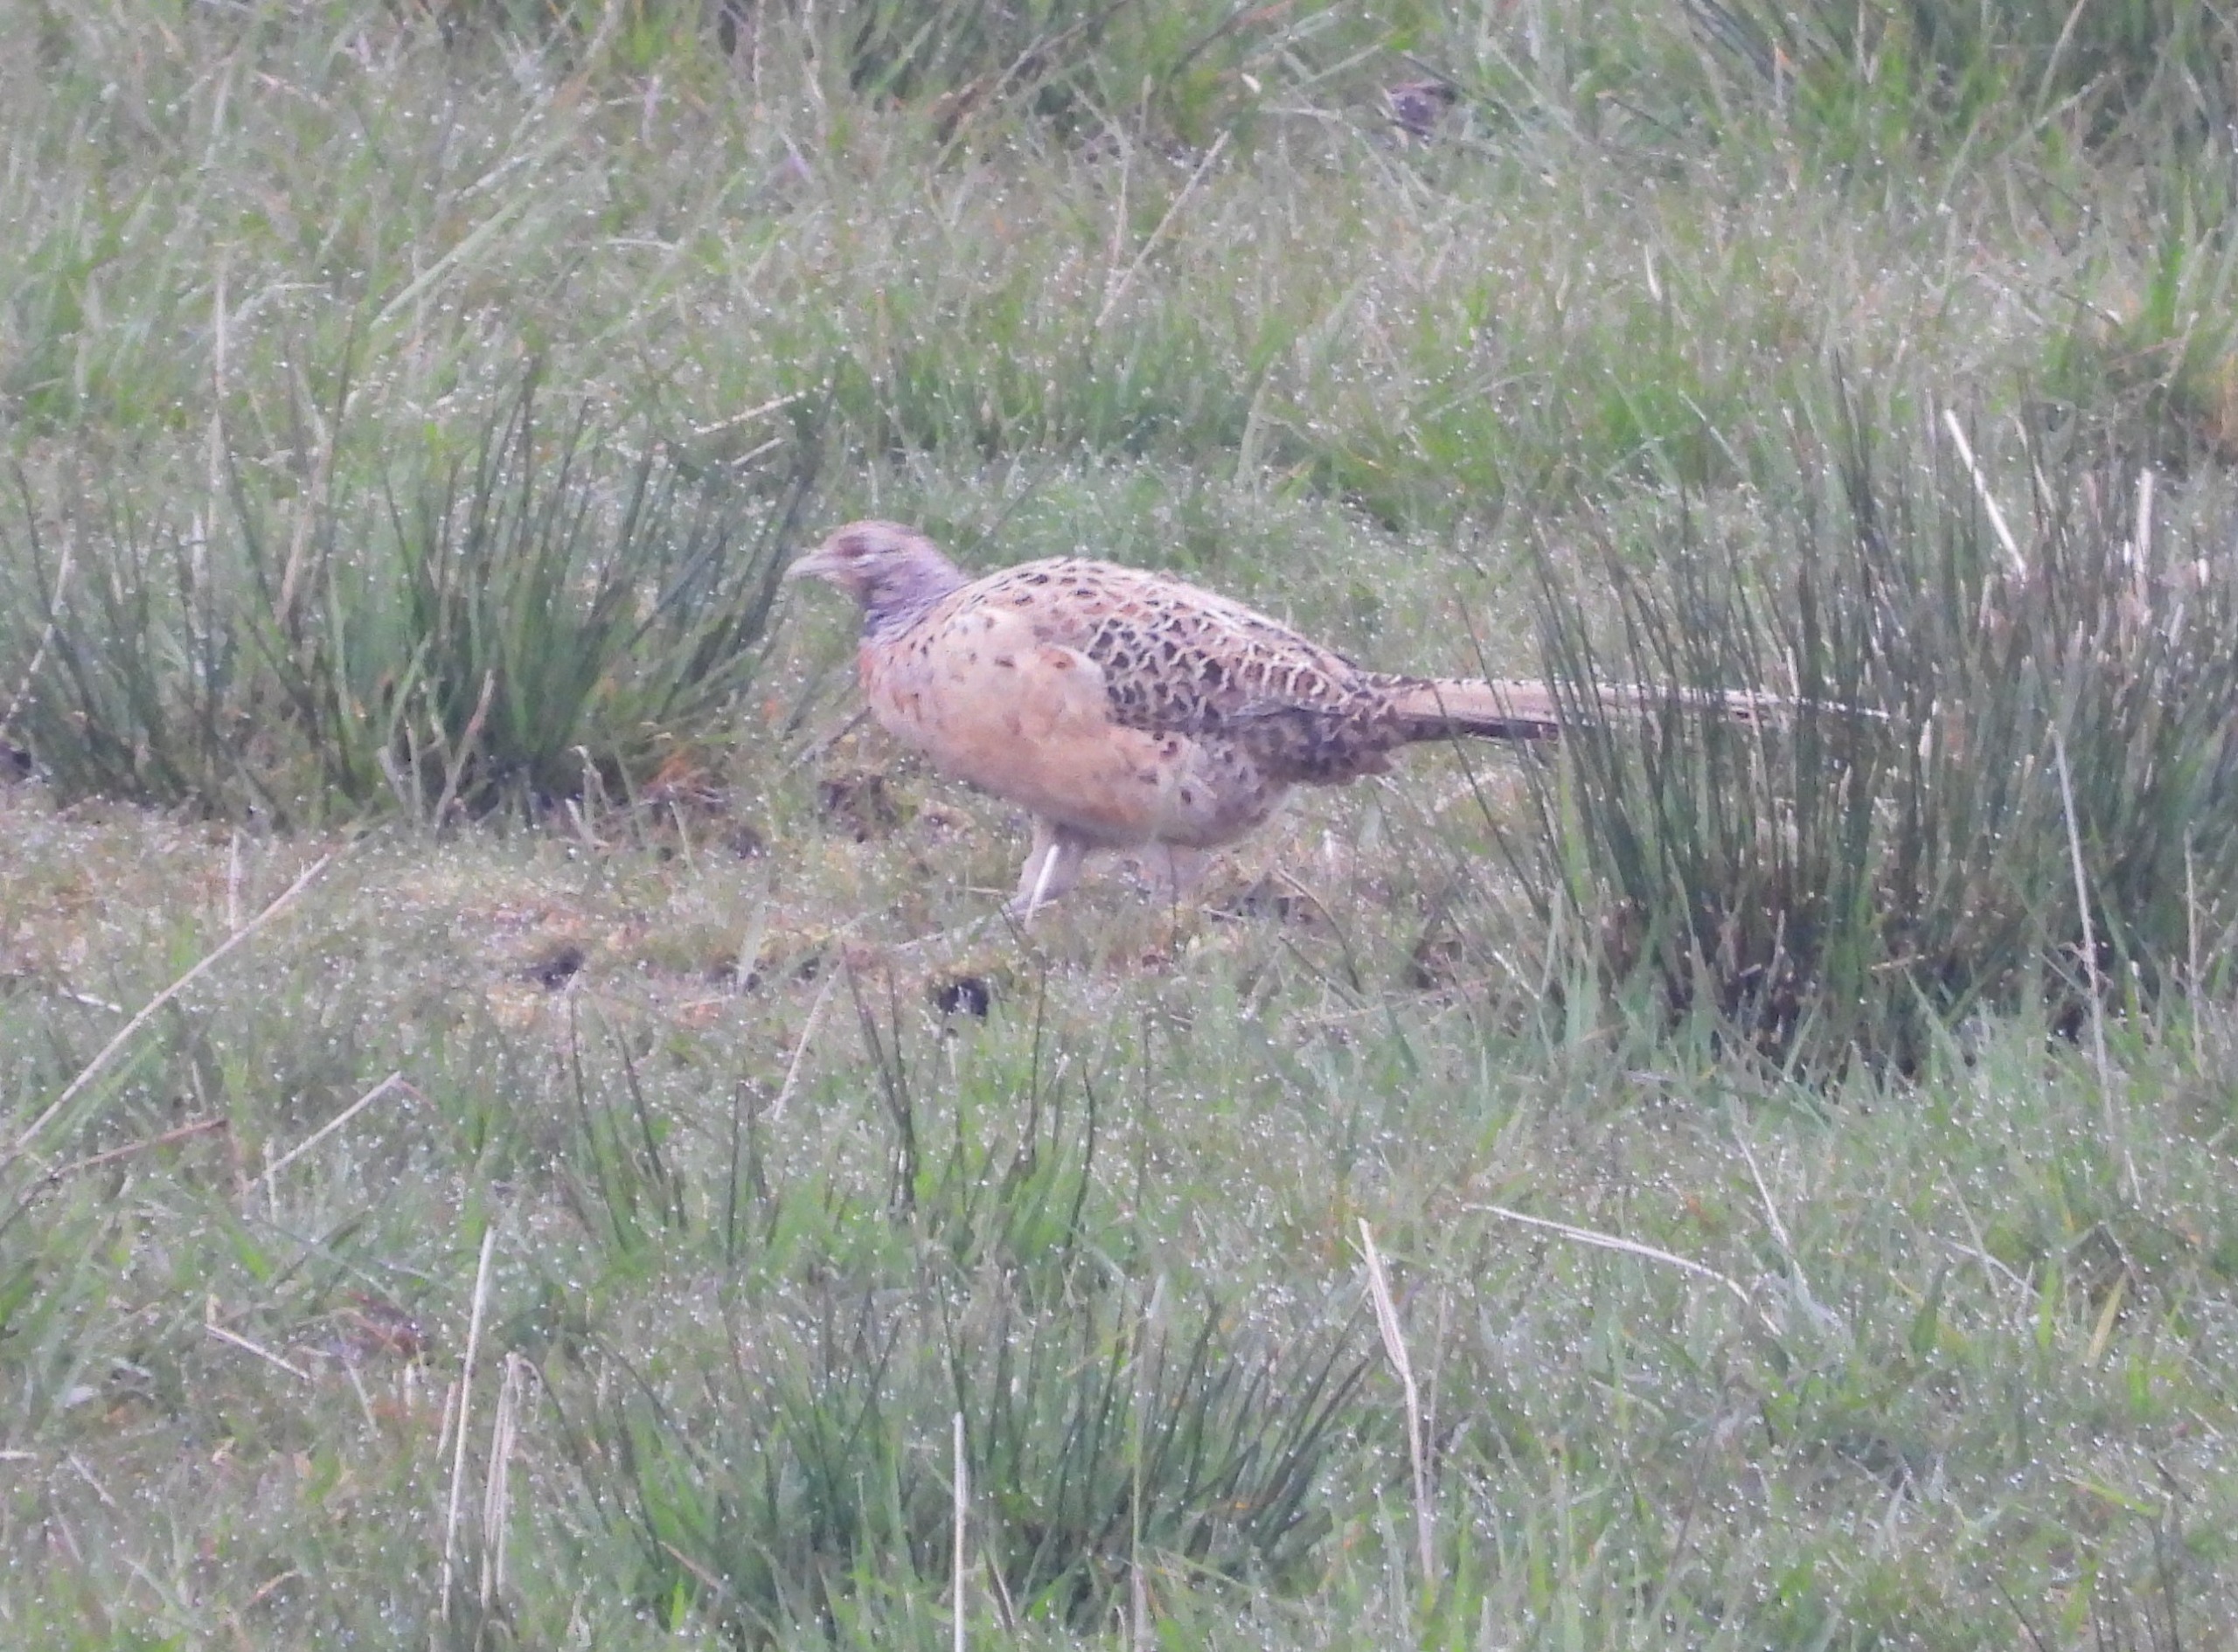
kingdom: Animalia
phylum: Chordata
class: Aves
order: Galliformes
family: Phasianidae
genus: Phasianus
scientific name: Phasianus colchicus
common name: Fasan
